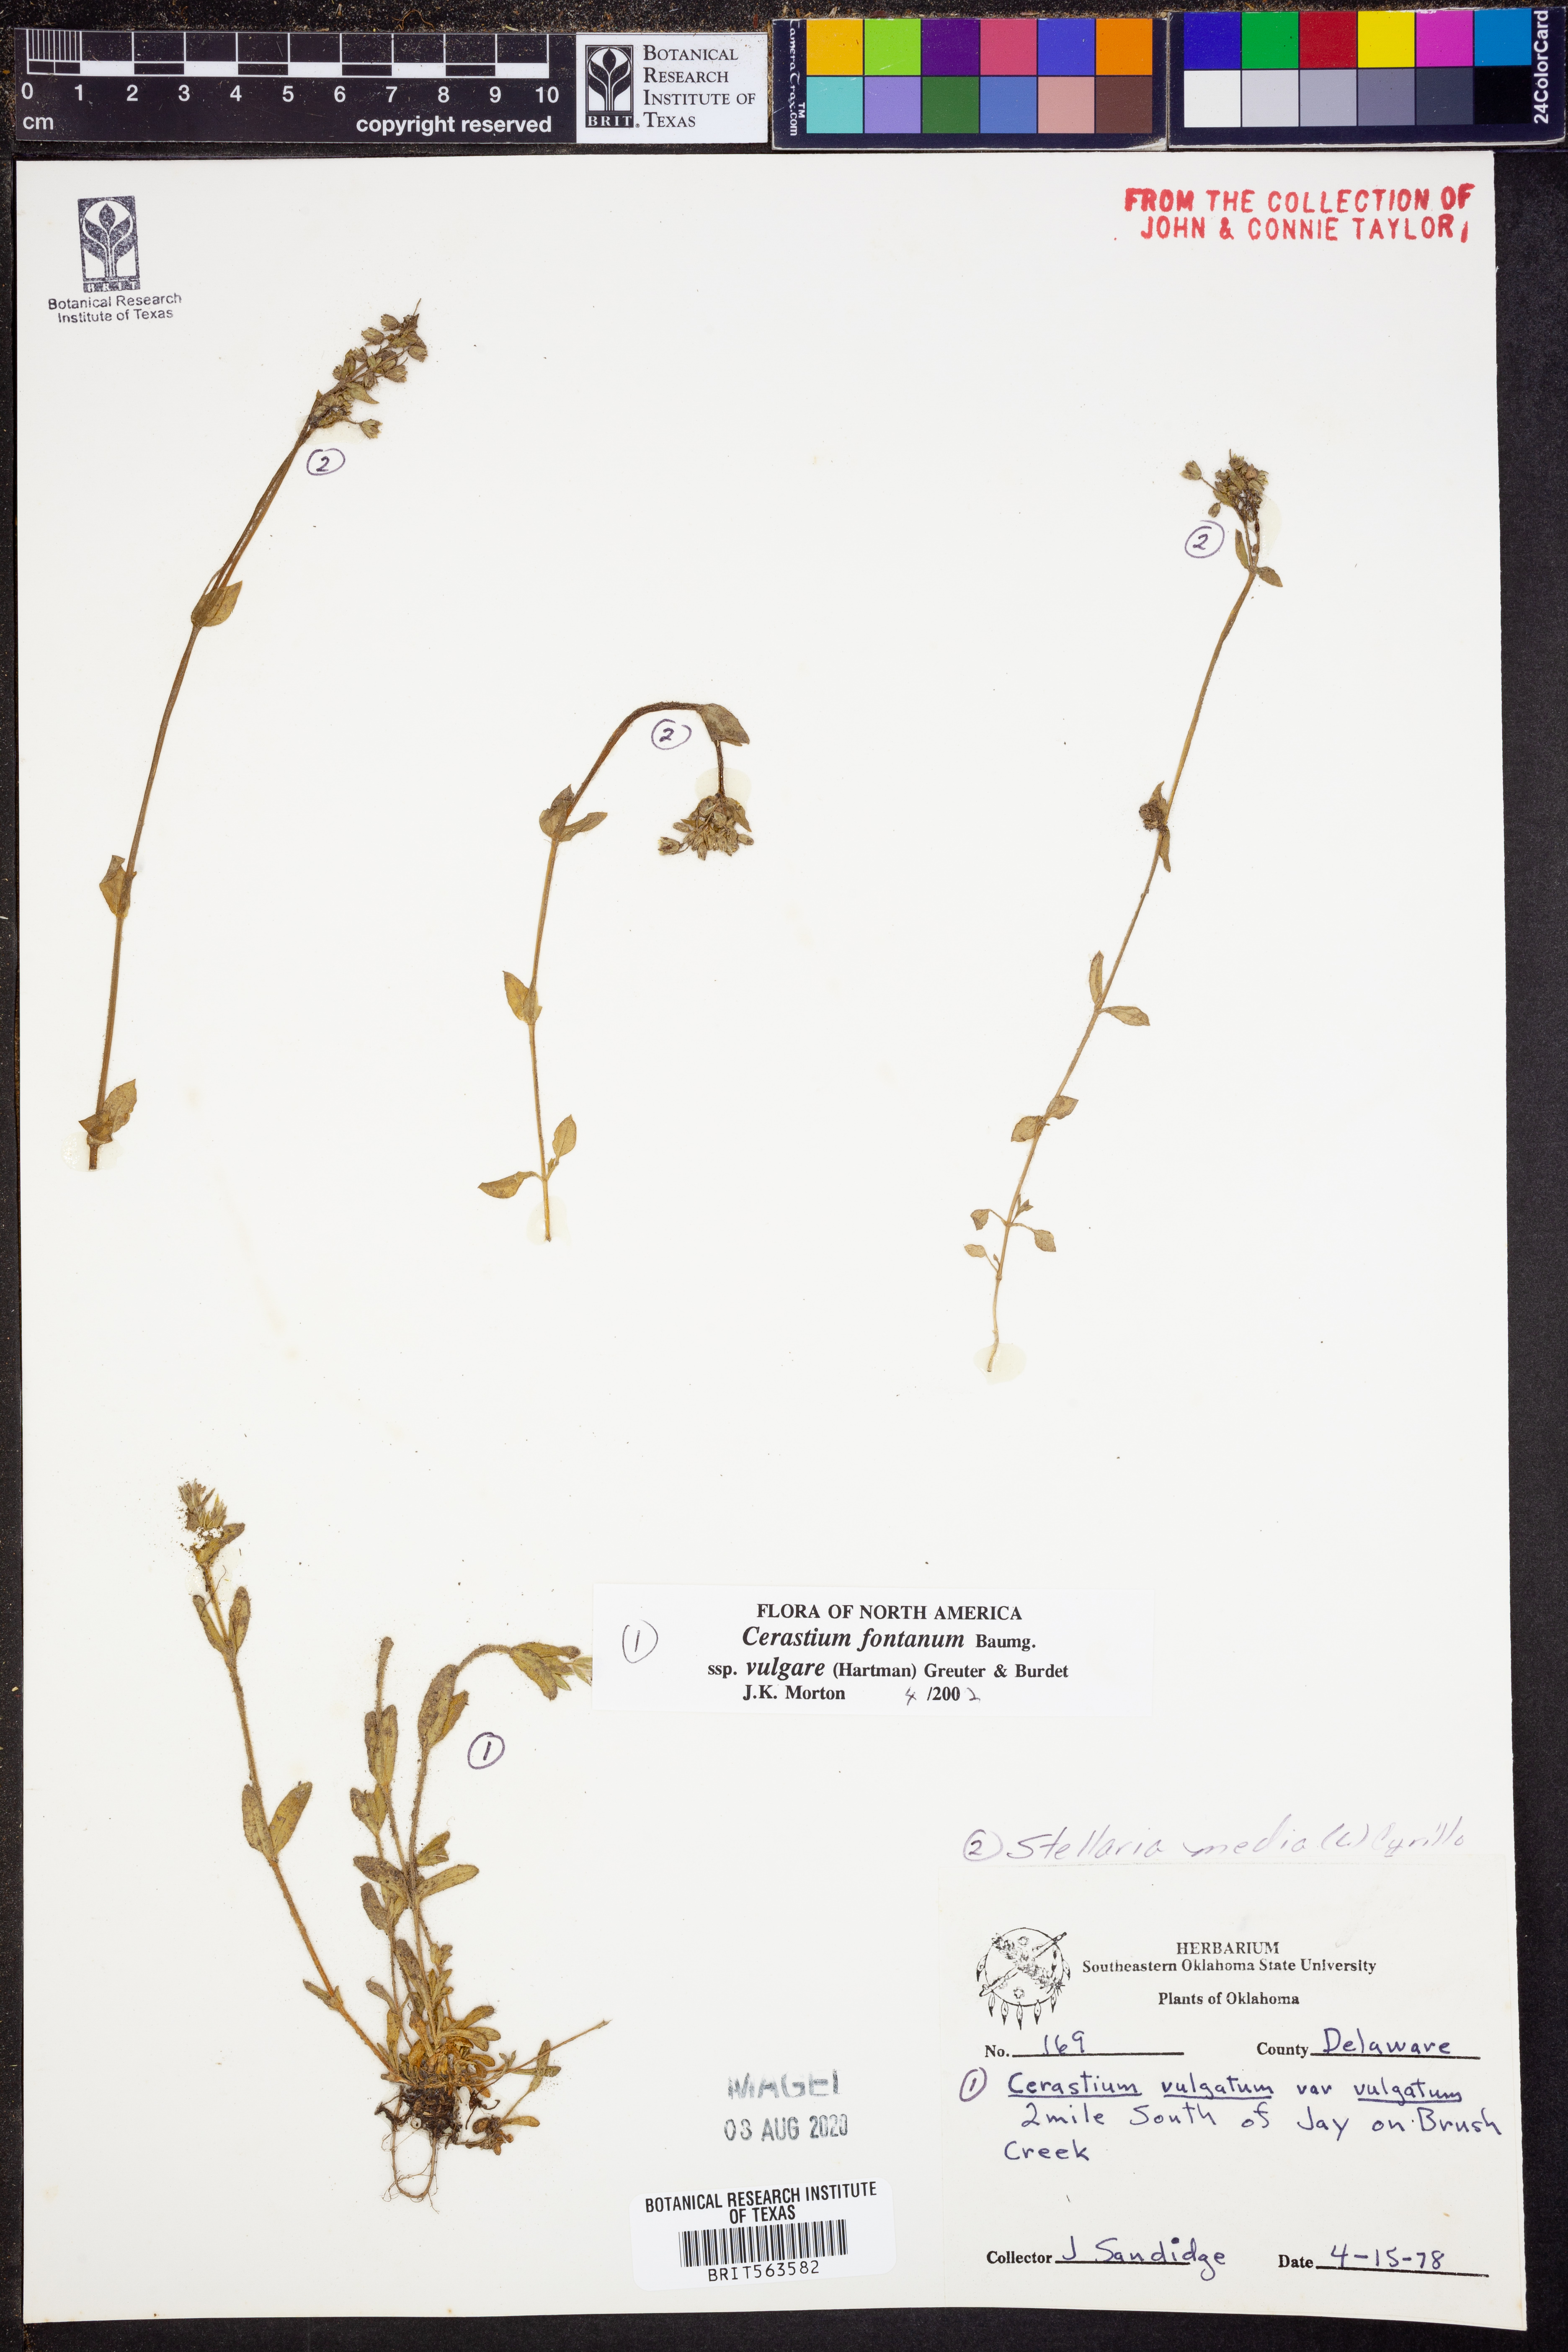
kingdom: Plantae
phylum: Tracheophyta
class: Magnoliopsida
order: Caryophyllales
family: Caryophyllaceae
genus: Cerastium
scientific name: Cerastium holosteoides
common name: Big chickweed
